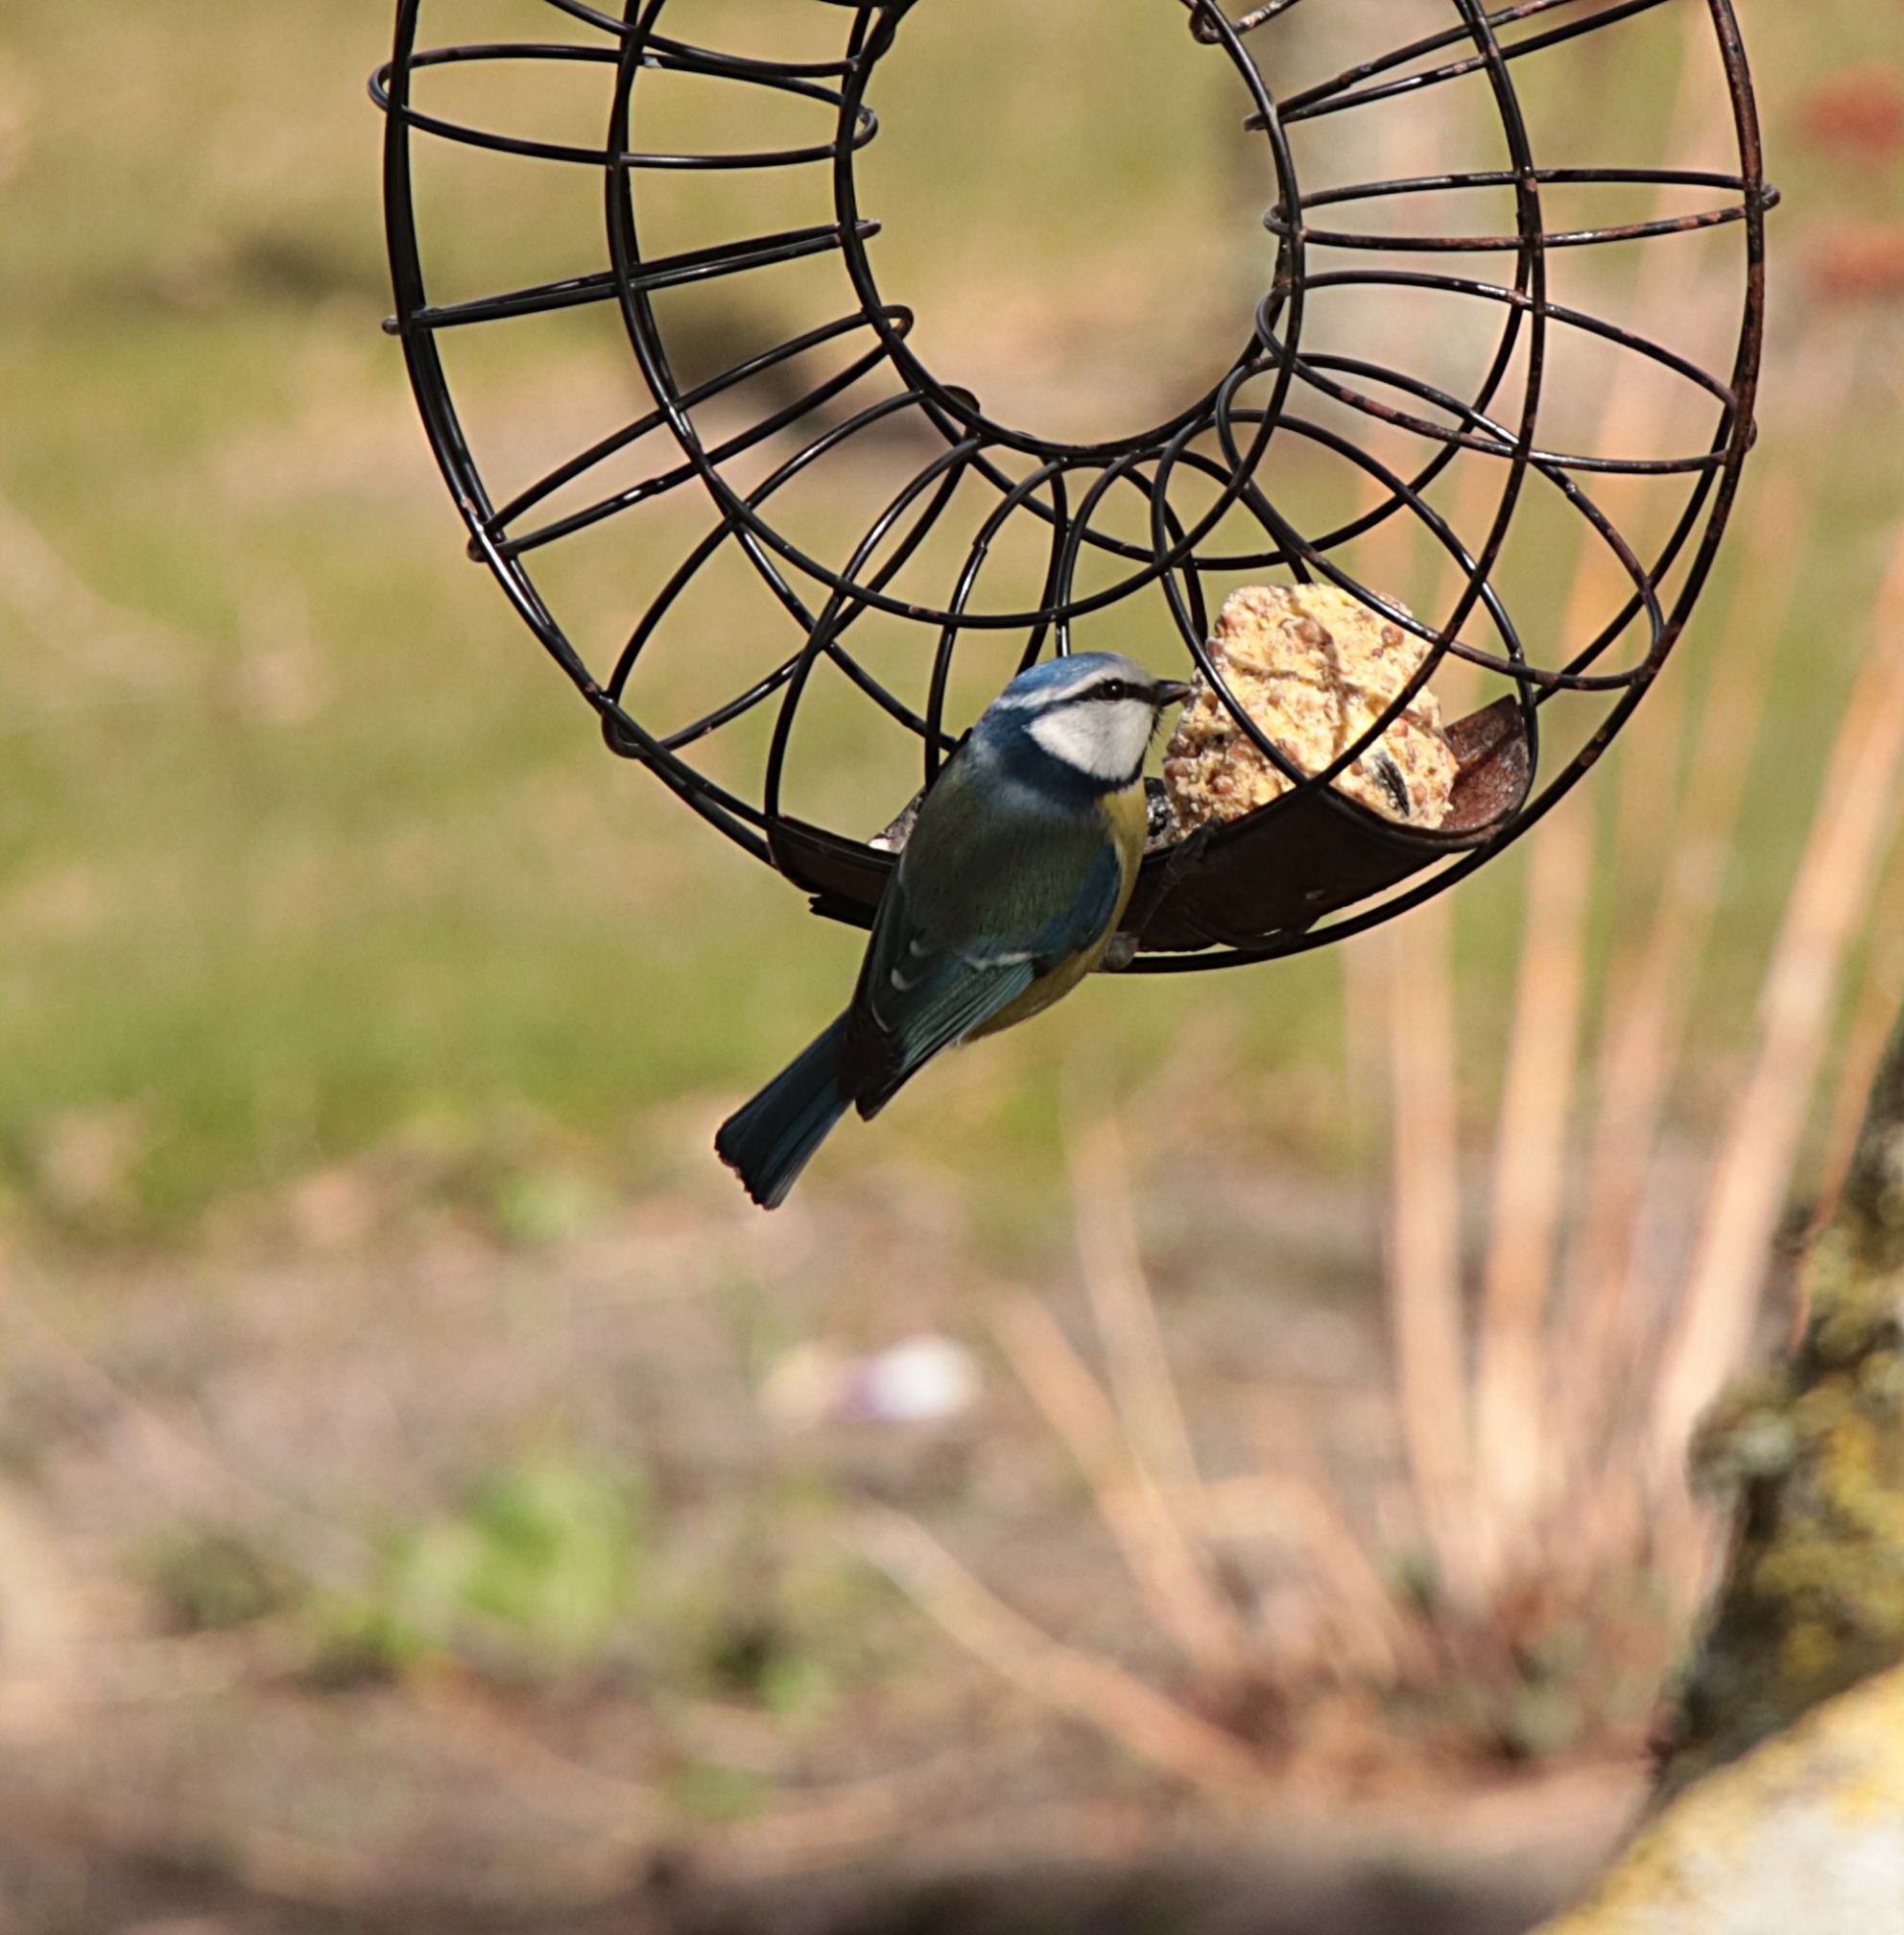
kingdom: Animalia
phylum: Chordata
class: Aves
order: Passeriformes
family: Paridae
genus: Cyanistes
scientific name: Cyanistes caeruleus
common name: Blåmejse
